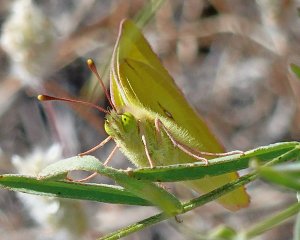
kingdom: Animalia
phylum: Arthropoda
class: Insecta
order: Lepidoptera
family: Pieridae
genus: Colias
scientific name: Colias philodice
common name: Clouded Sulphur
